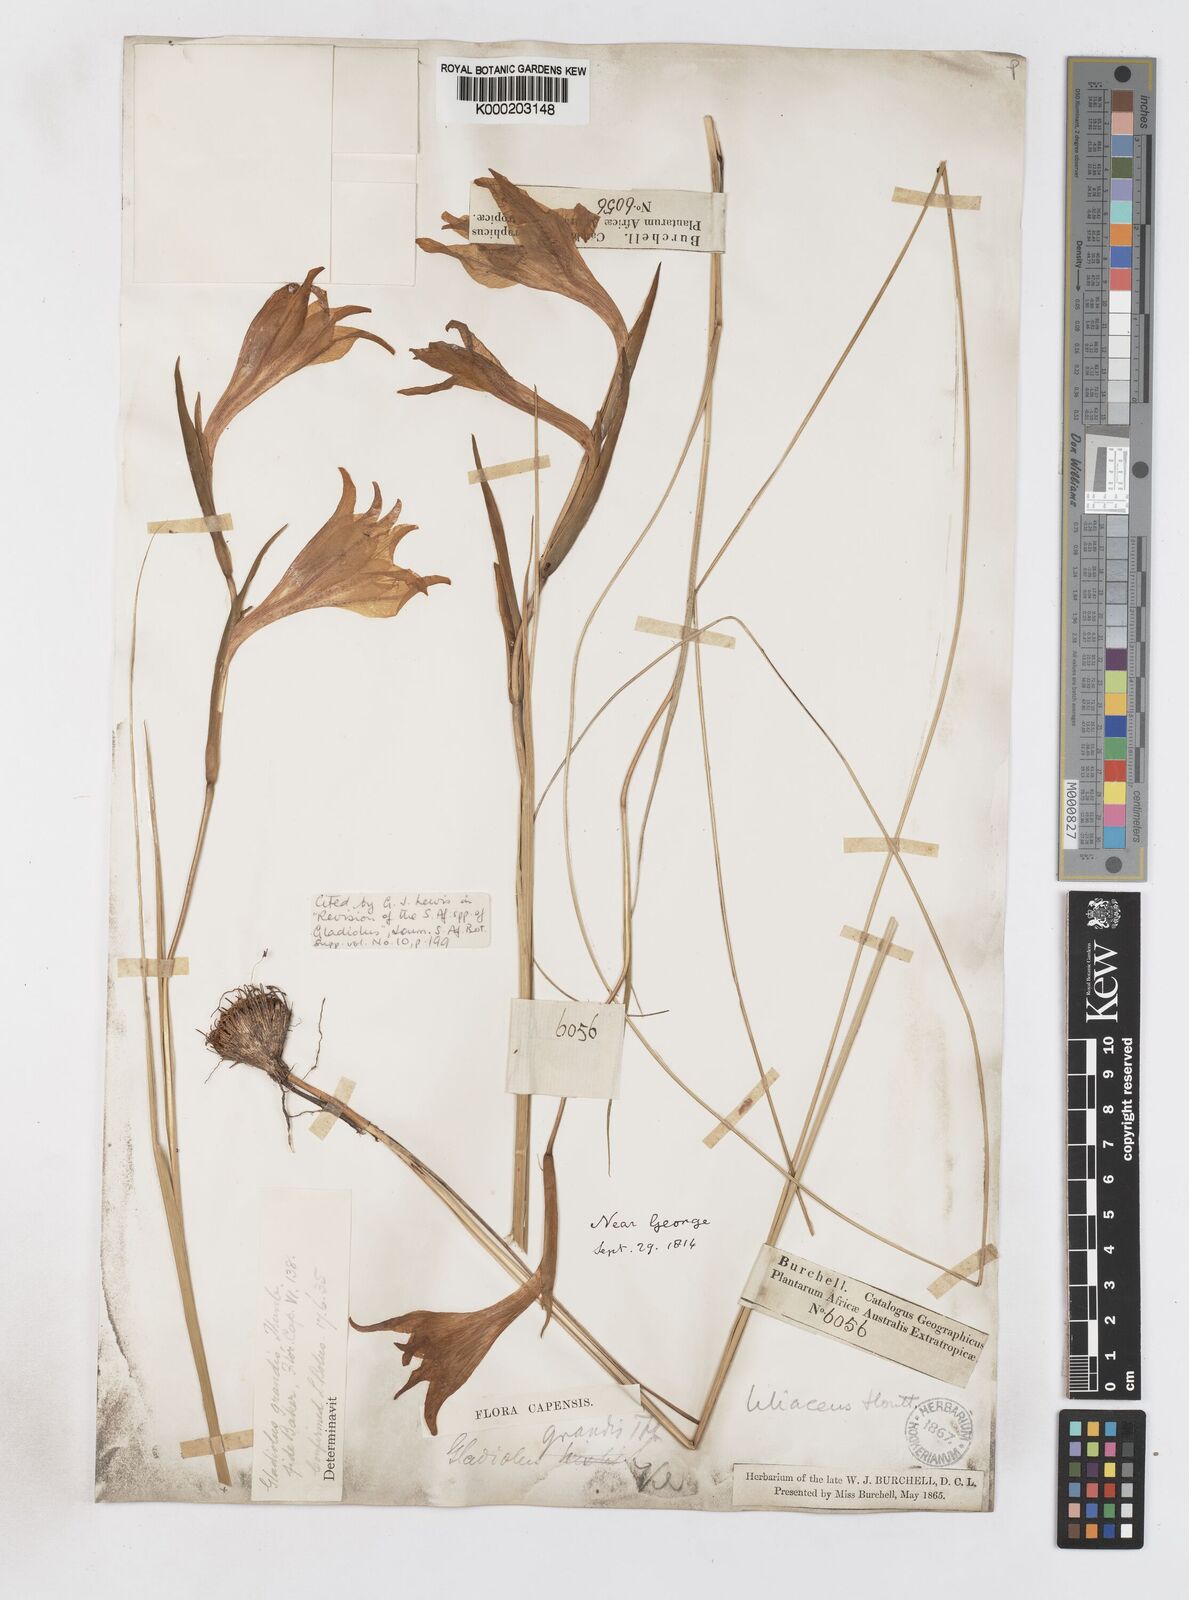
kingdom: Plantae
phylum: Tracheophyta
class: Liliopsida
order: Asparagales
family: Iridaceae
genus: Gladiolus
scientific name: Gladiolus liliaceus
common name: Large brown afrikaner
